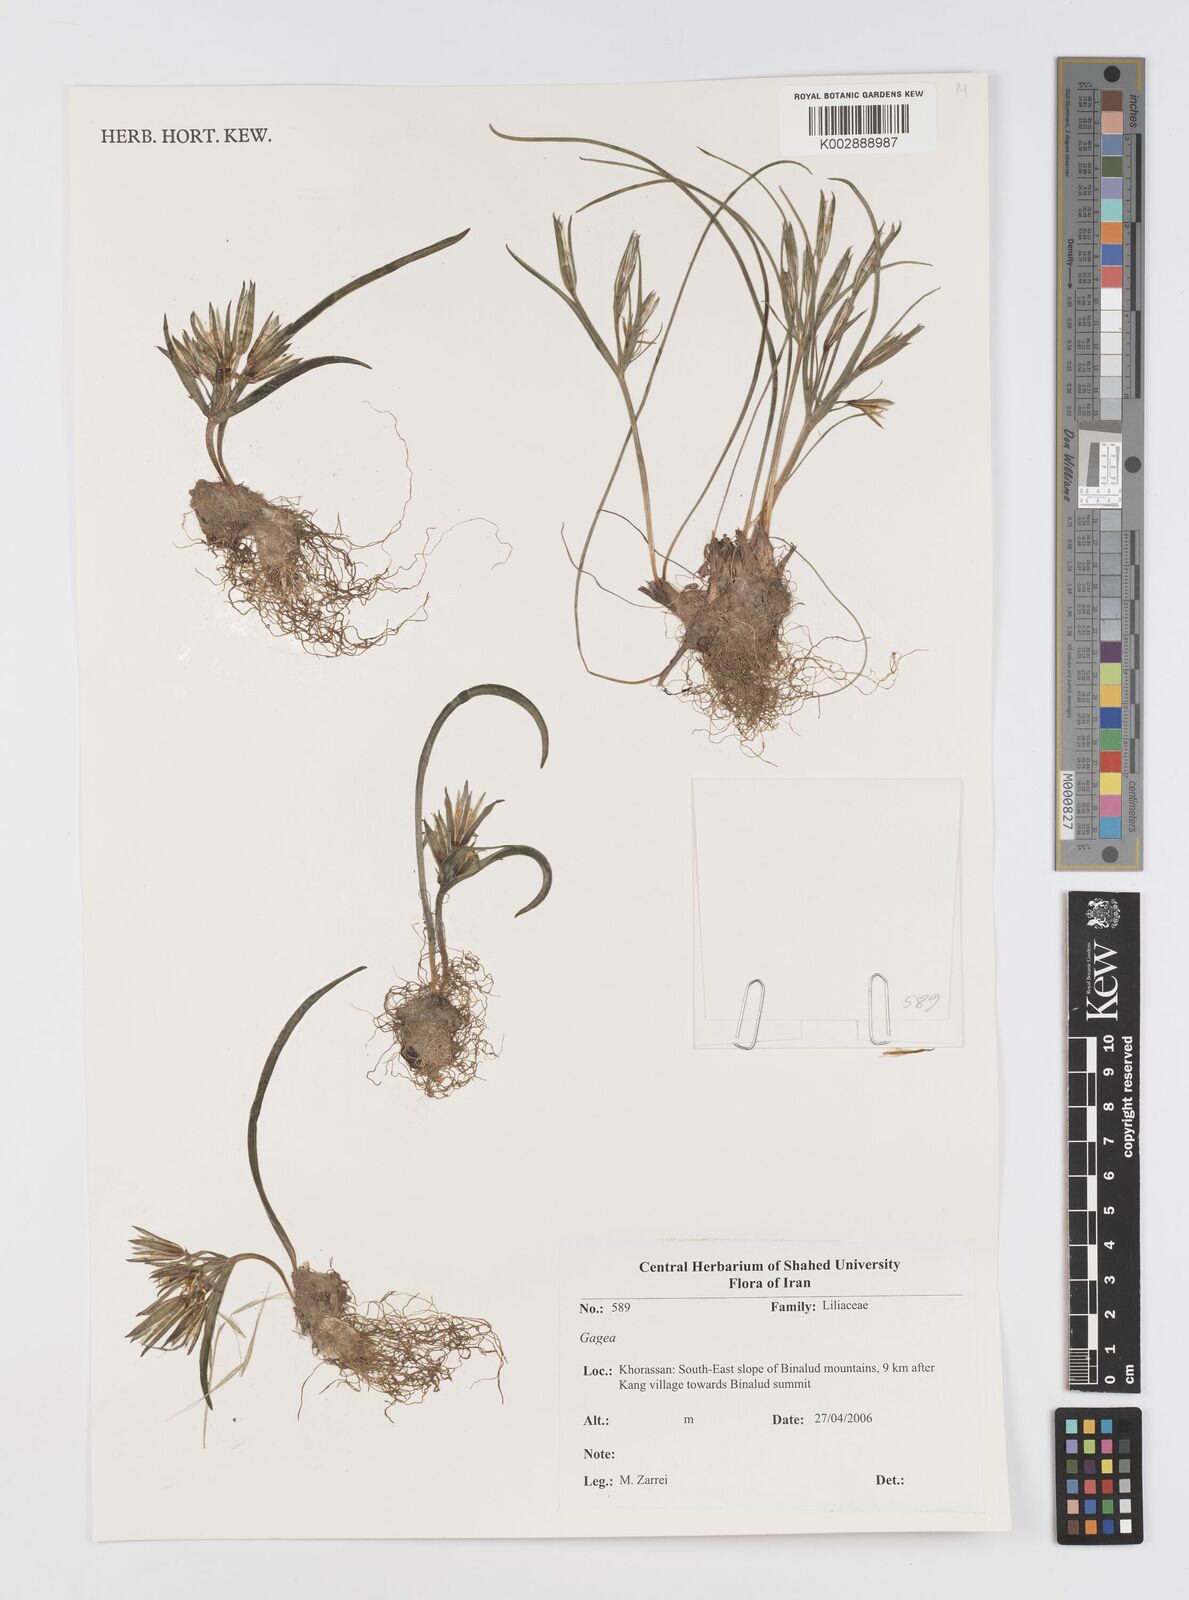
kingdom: Plantae
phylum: Tracheophyta
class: Liliopsida
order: Liliales
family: Liliaceae
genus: Gagea
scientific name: Gagea
